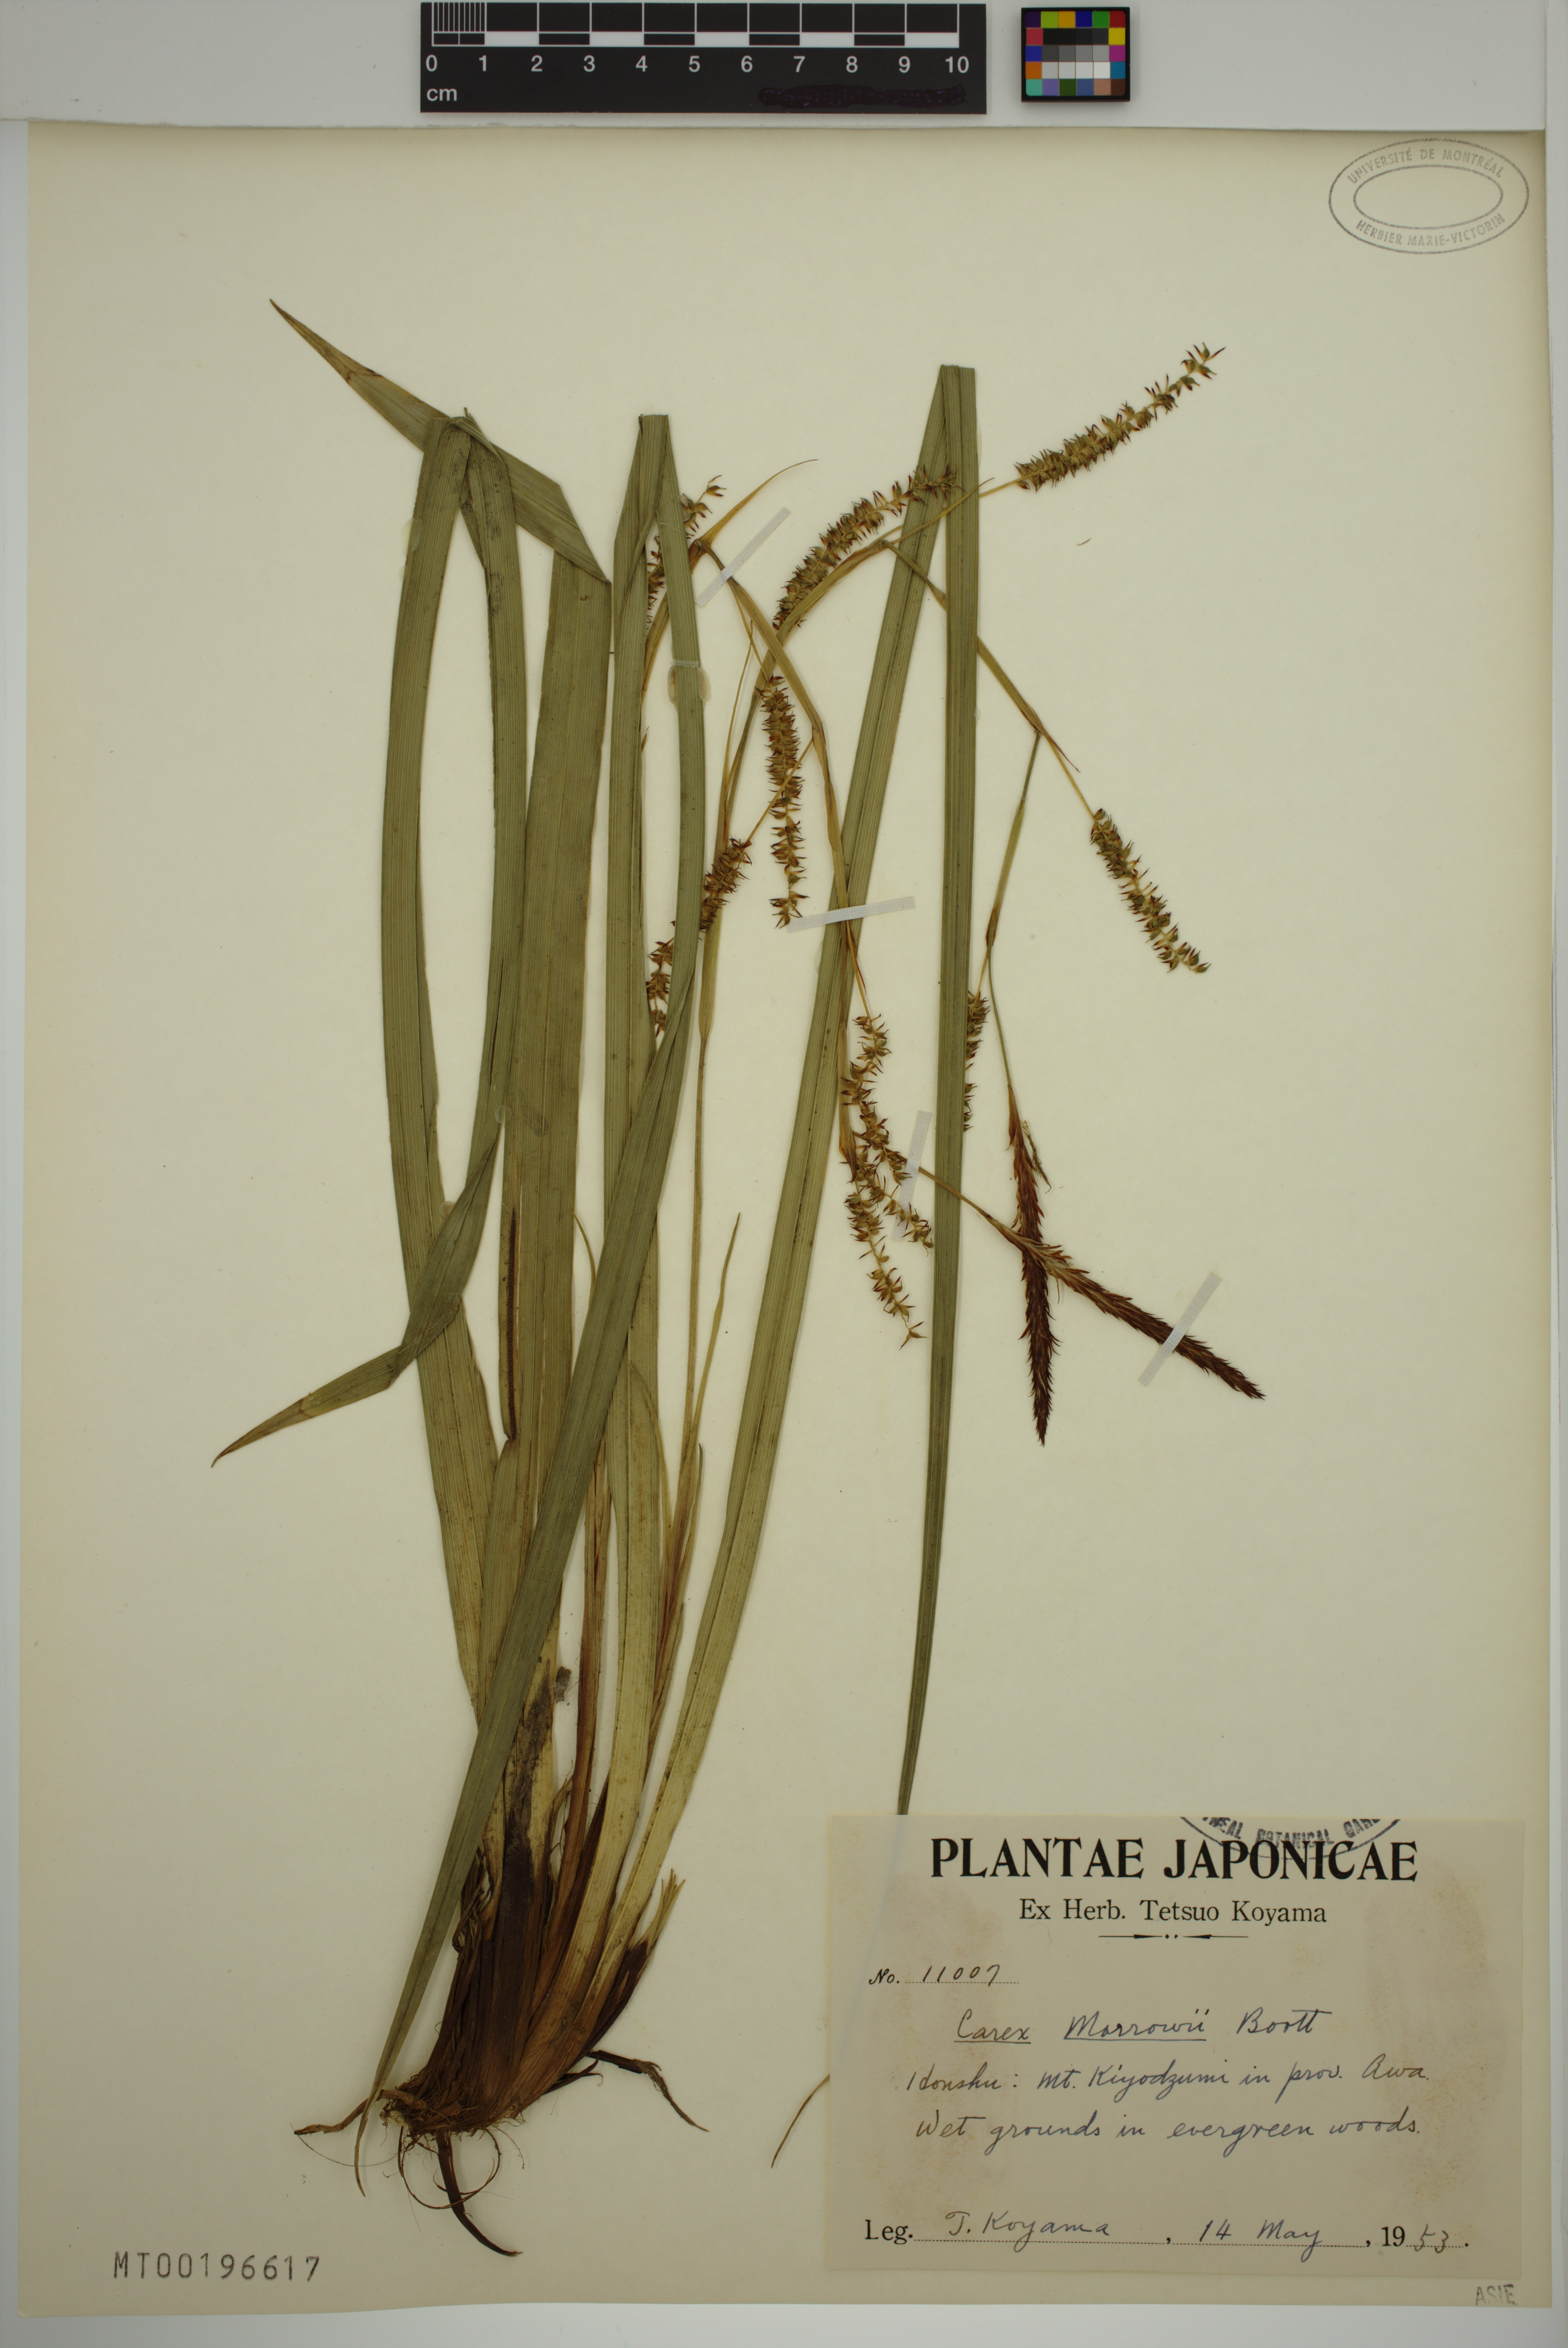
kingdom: Plantae
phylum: Tracheophyta
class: Liliopsida
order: Poales
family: Cyperaceae
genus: Carex
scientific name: Carex morrowii
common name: Japanese sedge
